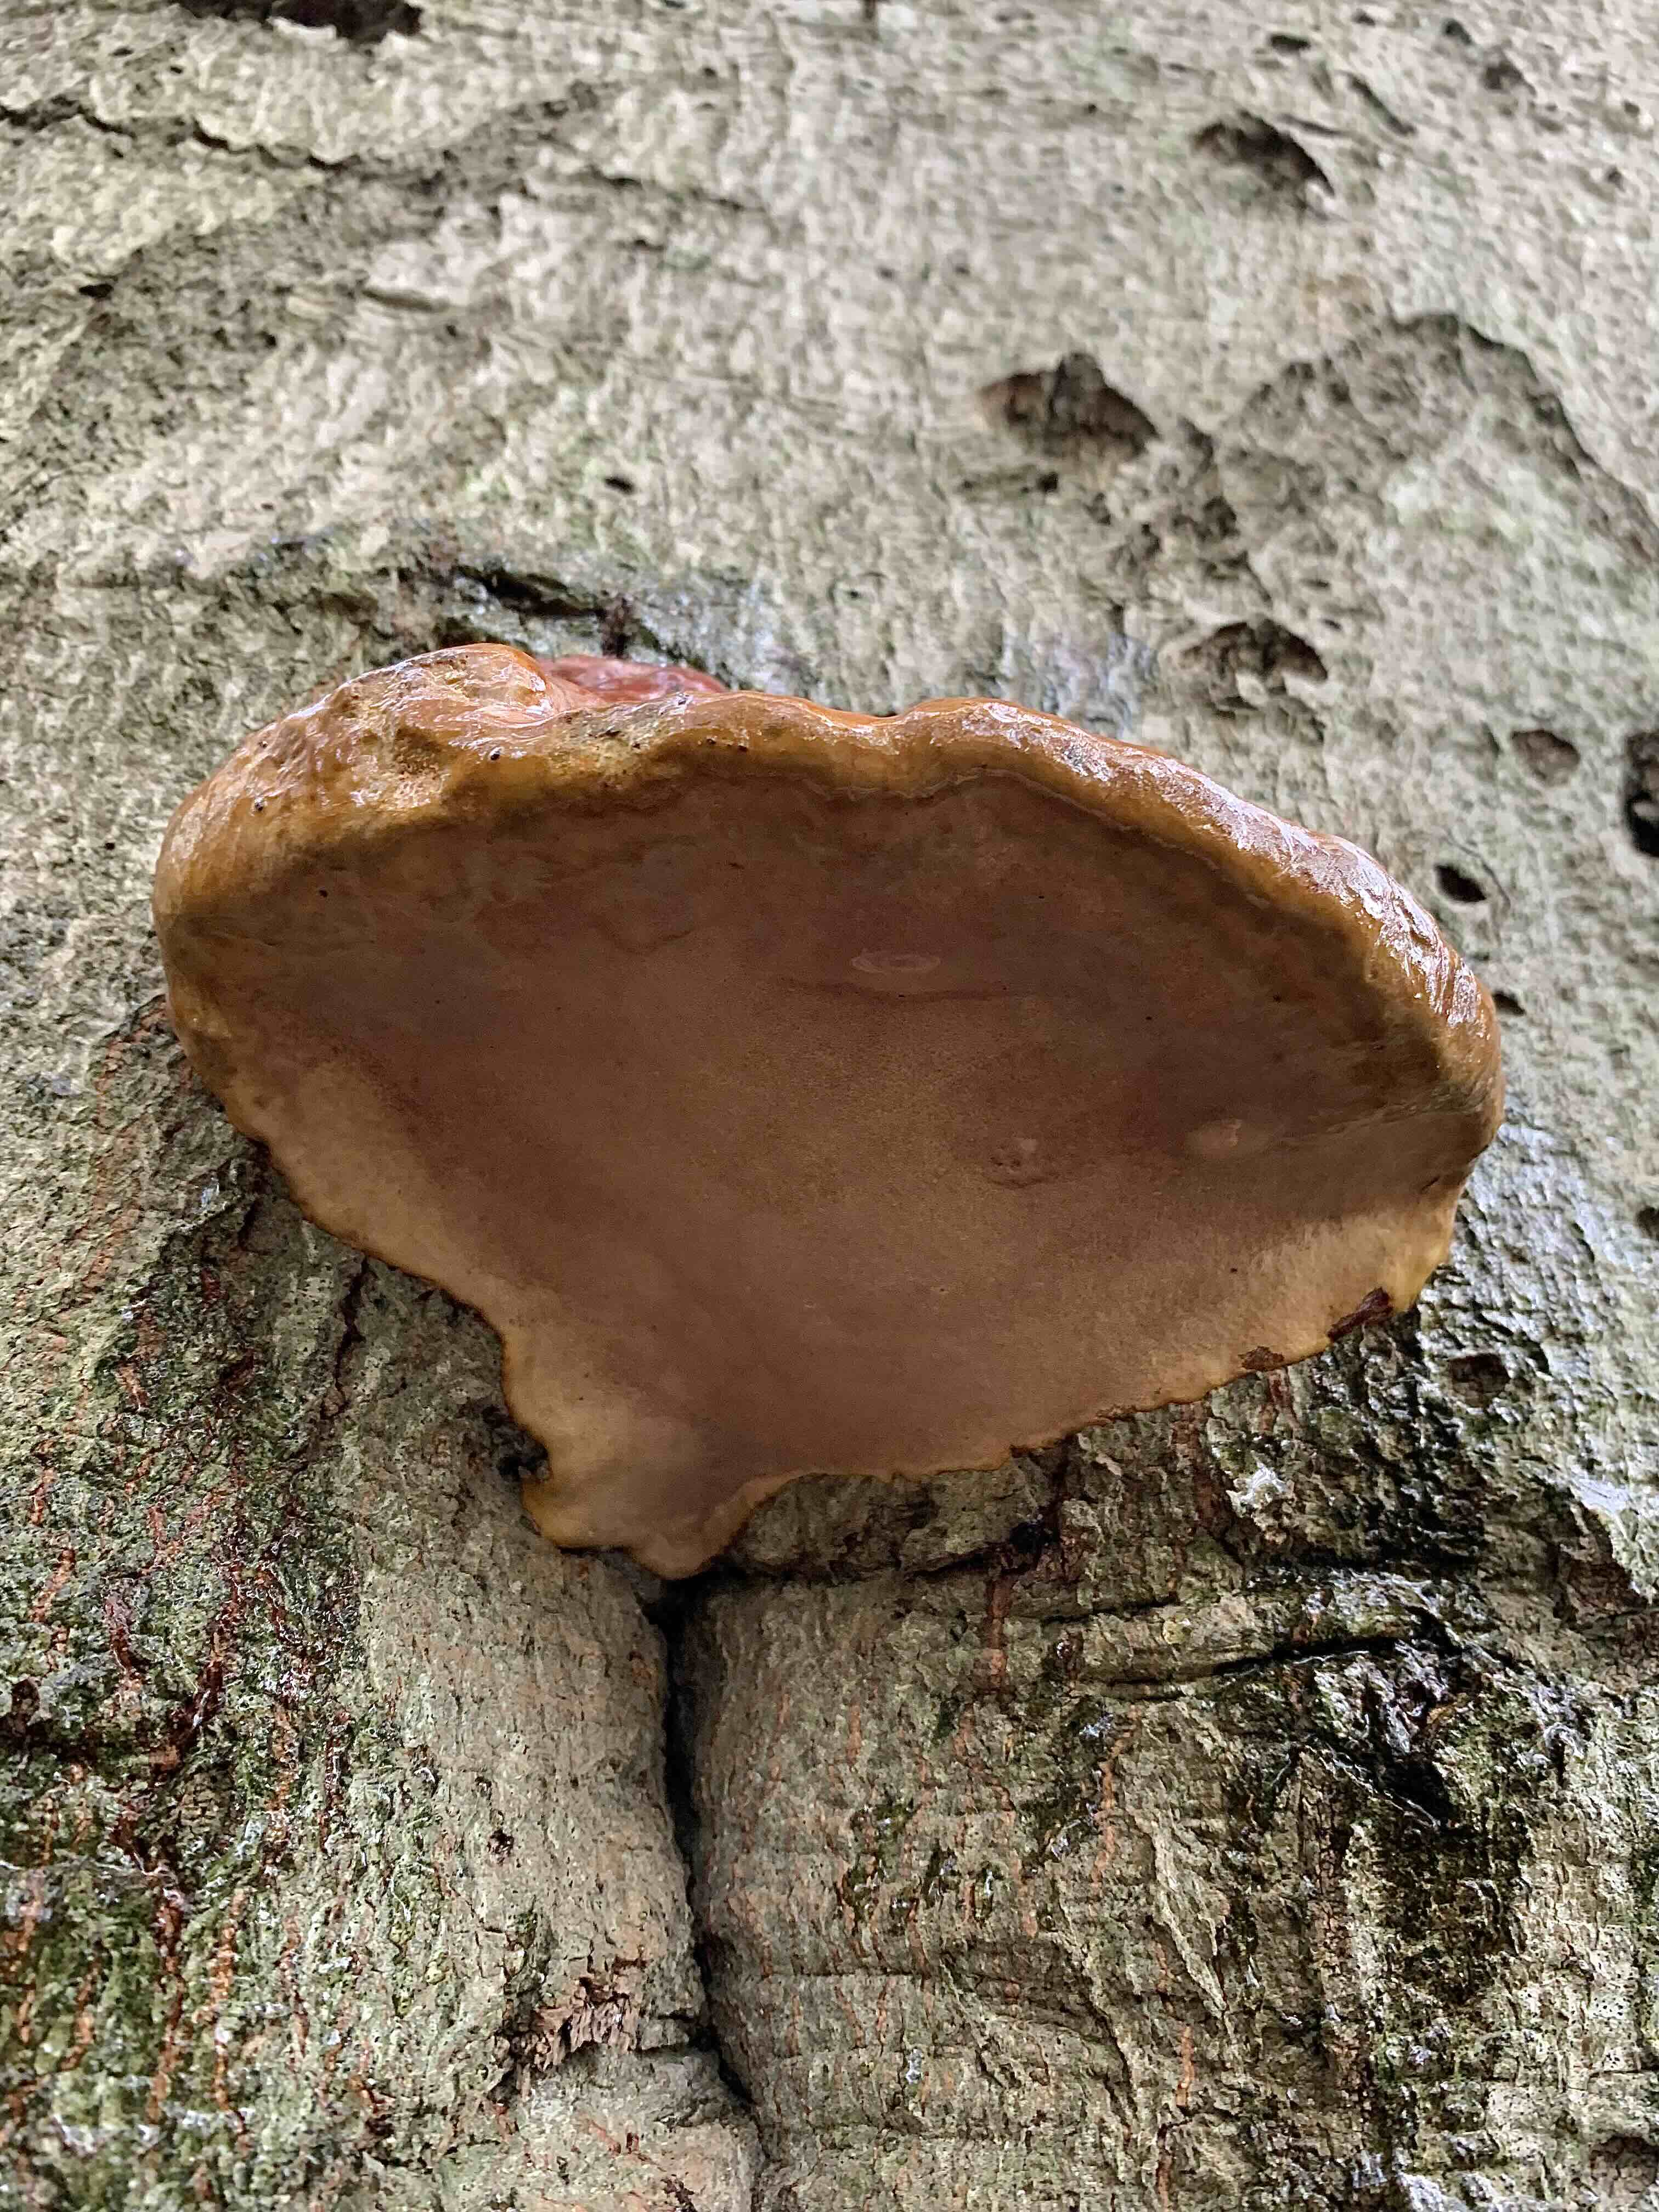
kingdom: Fungi
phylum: Basidiomycota
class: Agaricomycetes
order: Polyporales
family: Polyporaceae
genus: Ganoderma
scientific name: Ganoderma pfeifferi
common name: kobberrød lakporesvamp
